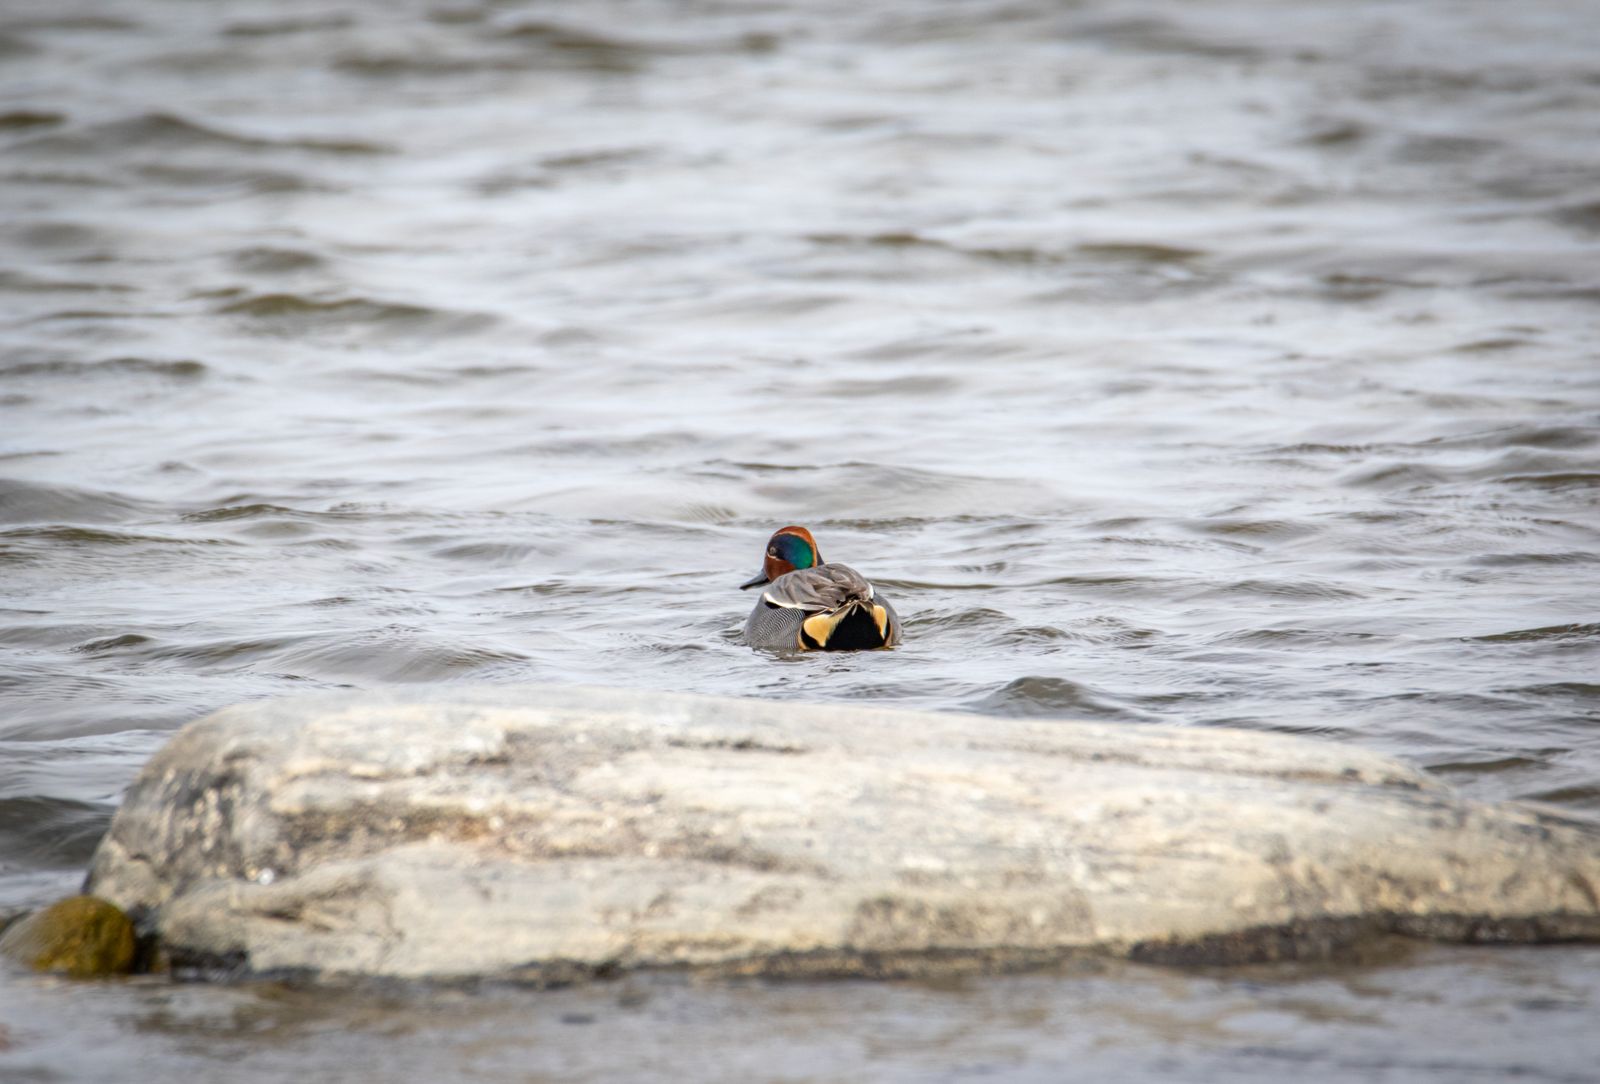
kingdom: Animalia
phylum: Chordata
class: Aves
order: Anseriformes
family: Anatidae
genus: Anas
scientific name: Anas crecca
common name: Eurasian teal
